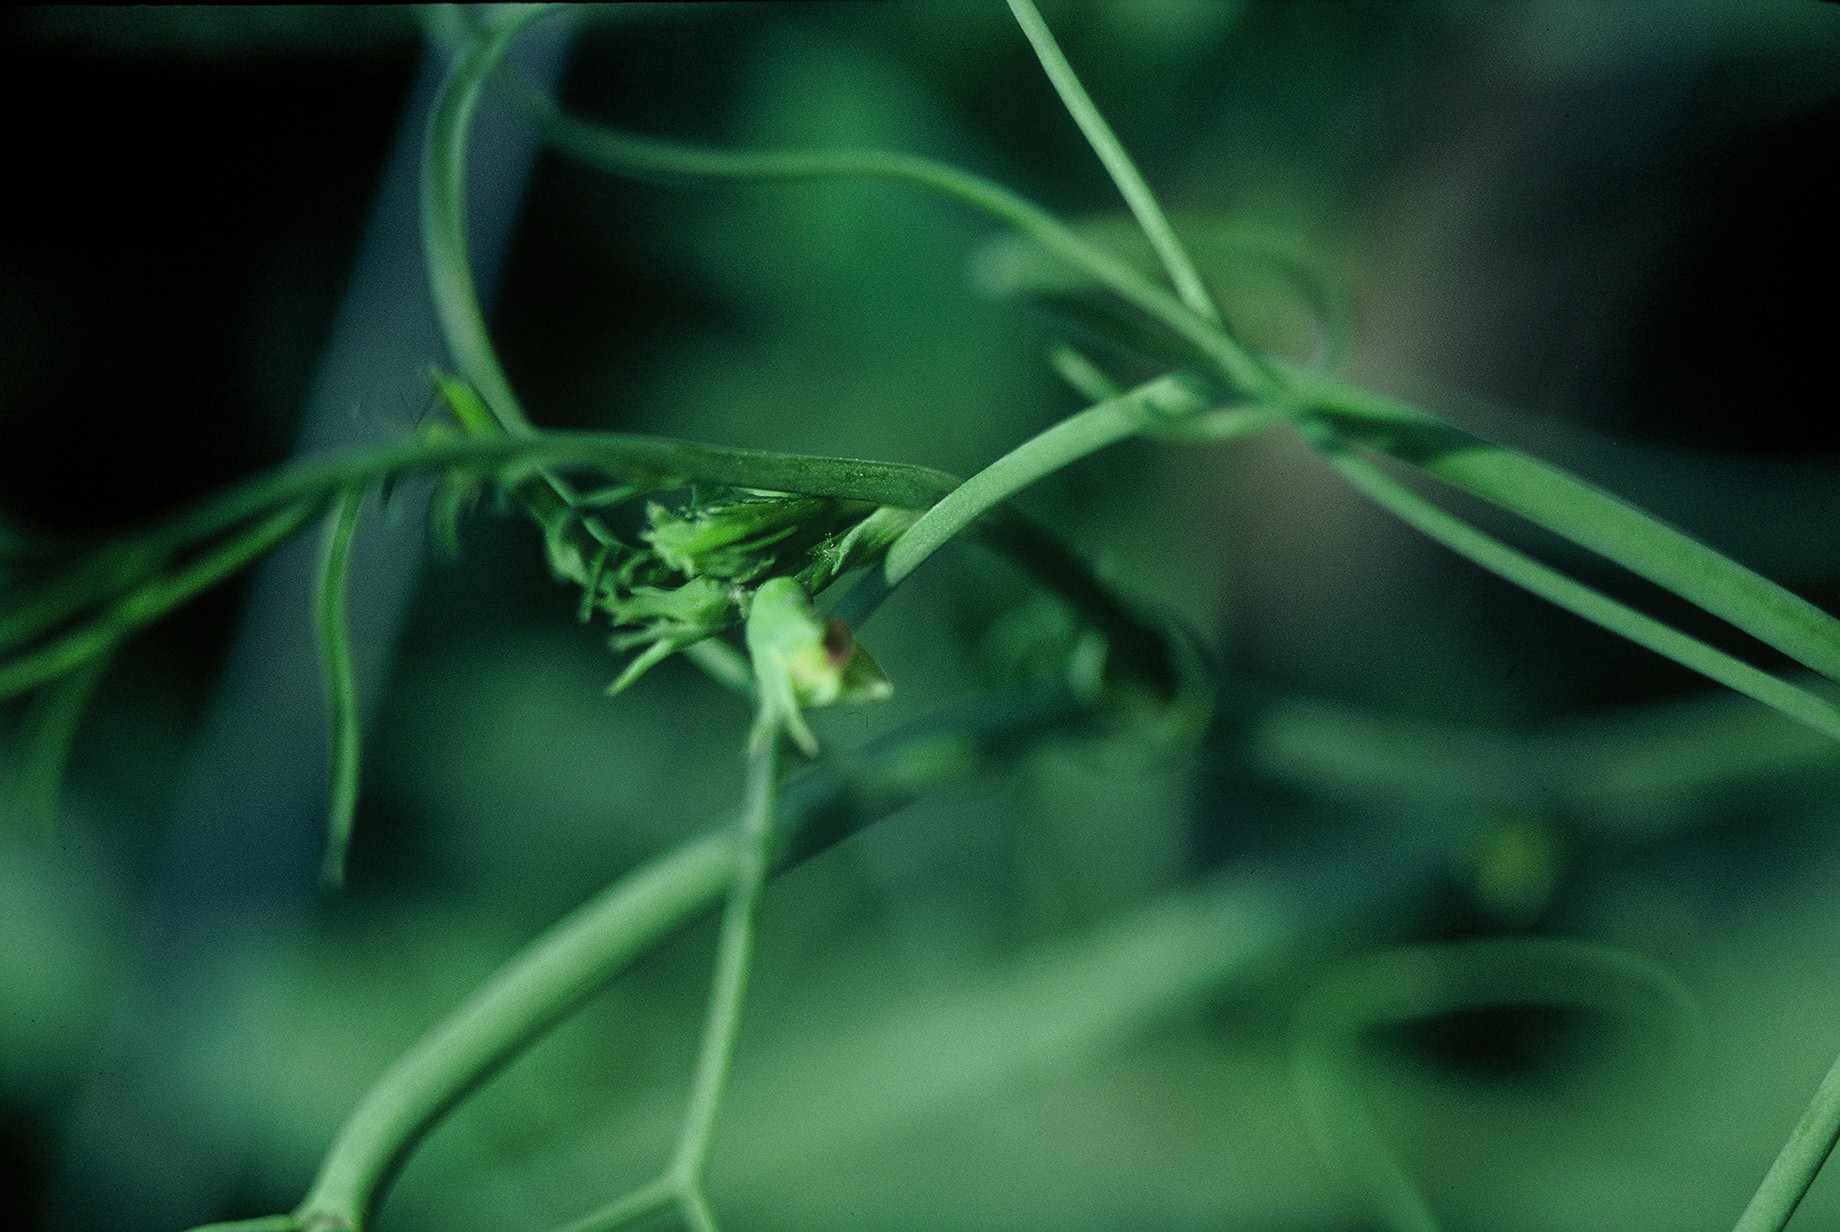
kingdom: Plantae
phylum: Tracheophyta
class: Magnoliopsida
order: Fabales
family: Fabaceae
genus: Lathyrus
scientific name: Lathyrus oleraceus
